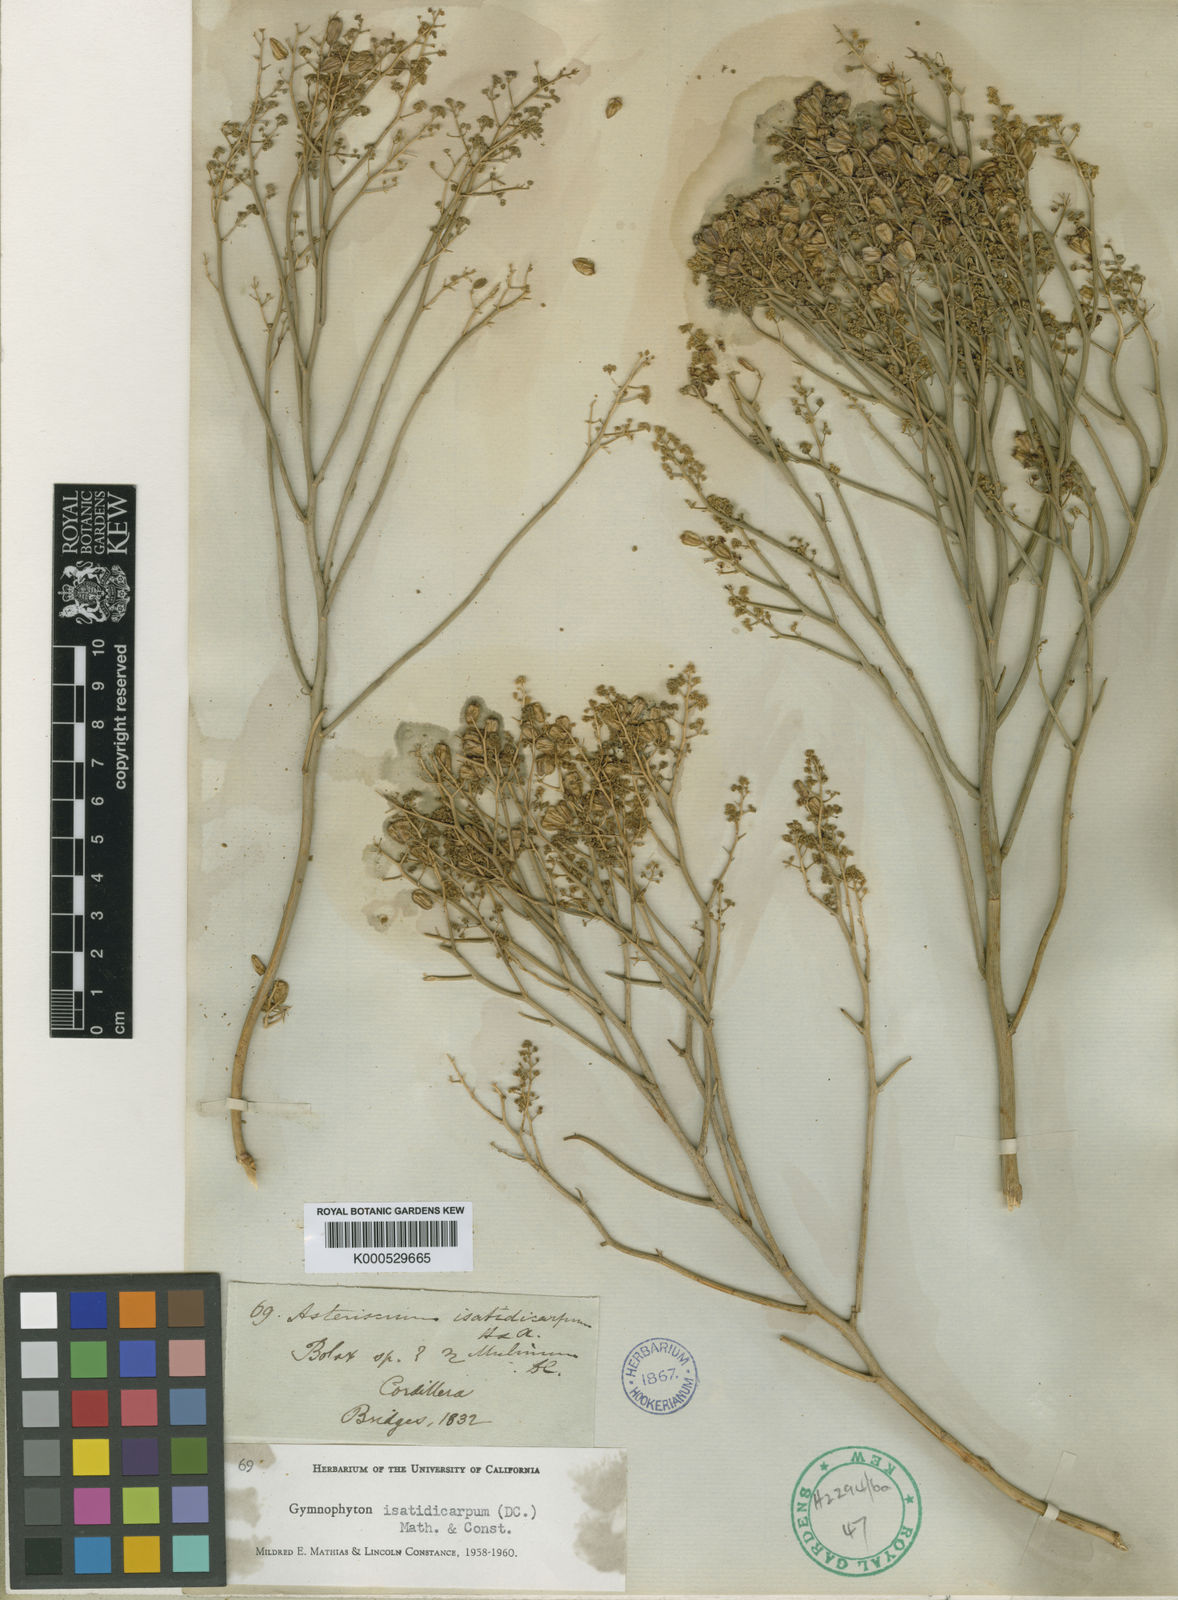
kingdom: Plantae
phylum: Tracheophyta
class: Magnoliopsida
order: Apiales
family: Apiaceae
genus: Gymnophyton
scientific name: Gymnophyton isatidicarpum
